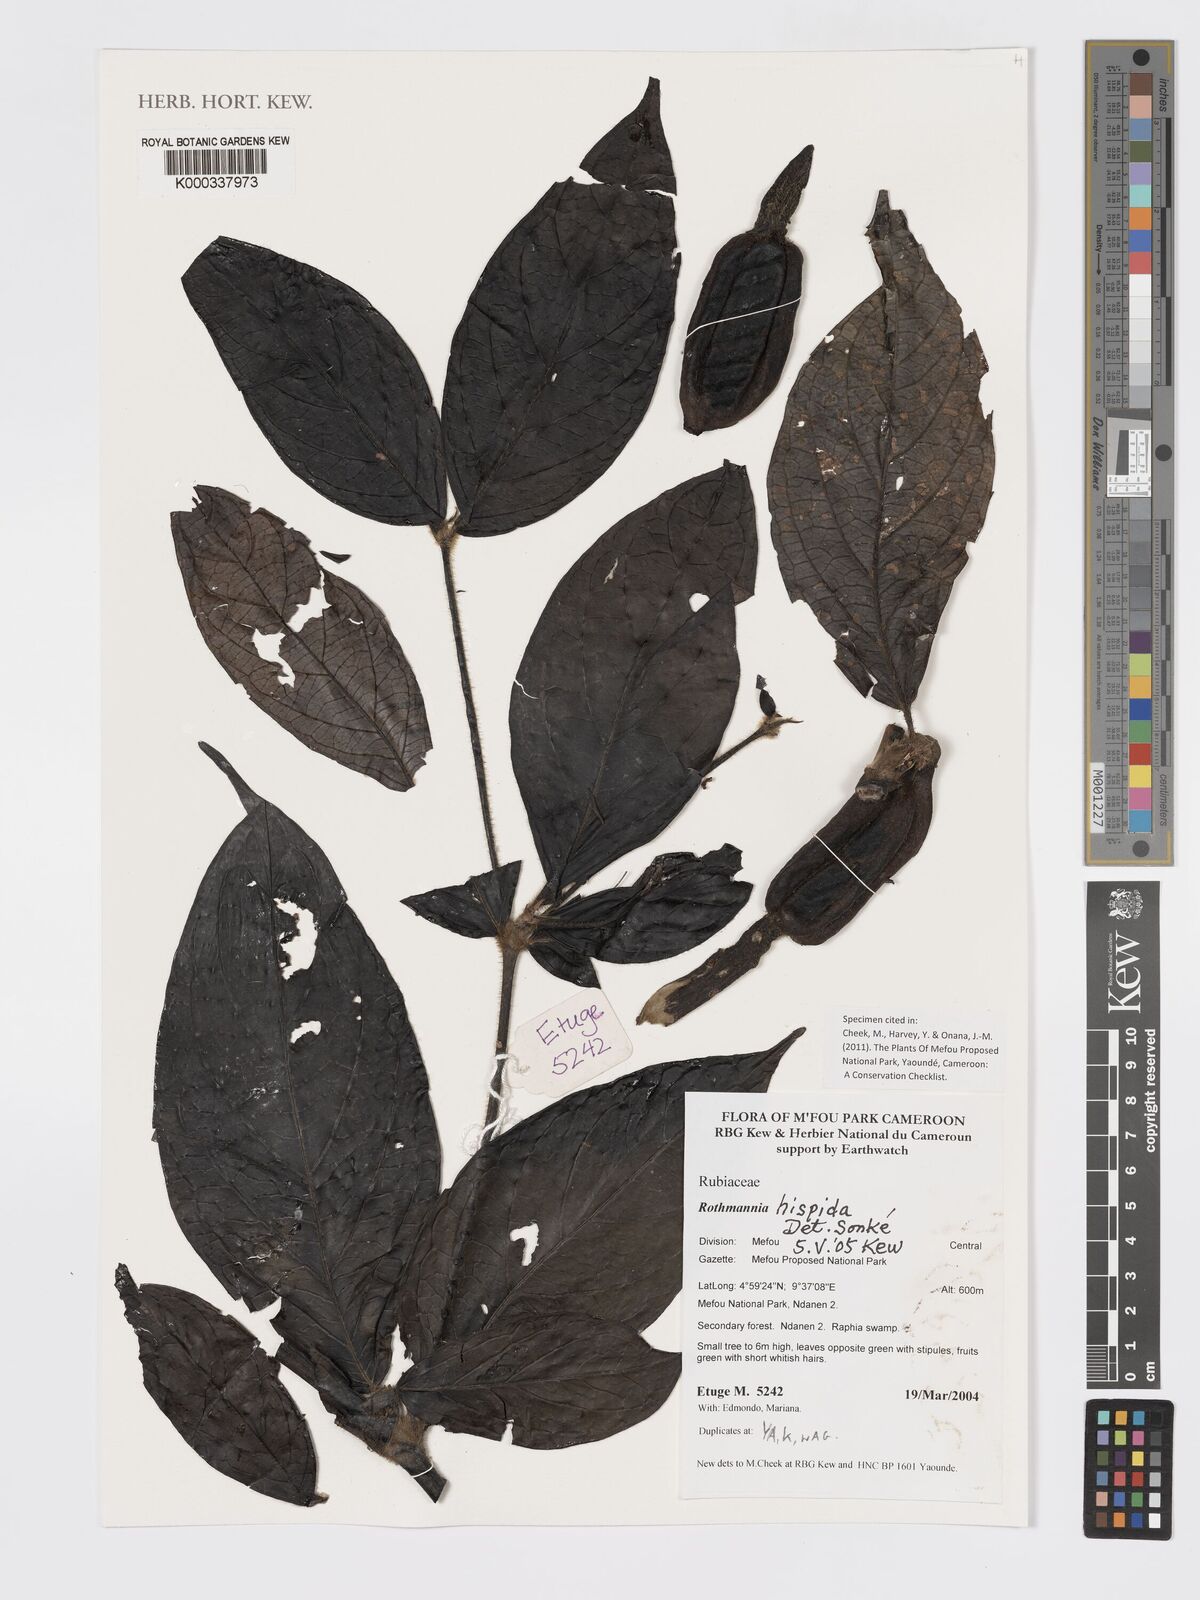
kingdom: Plantae
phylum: Tracheophyta
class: Magnoliopsida
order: Gentianales
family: Rubiaceae
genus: Rothmannia
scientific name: Rothmannia hispida
